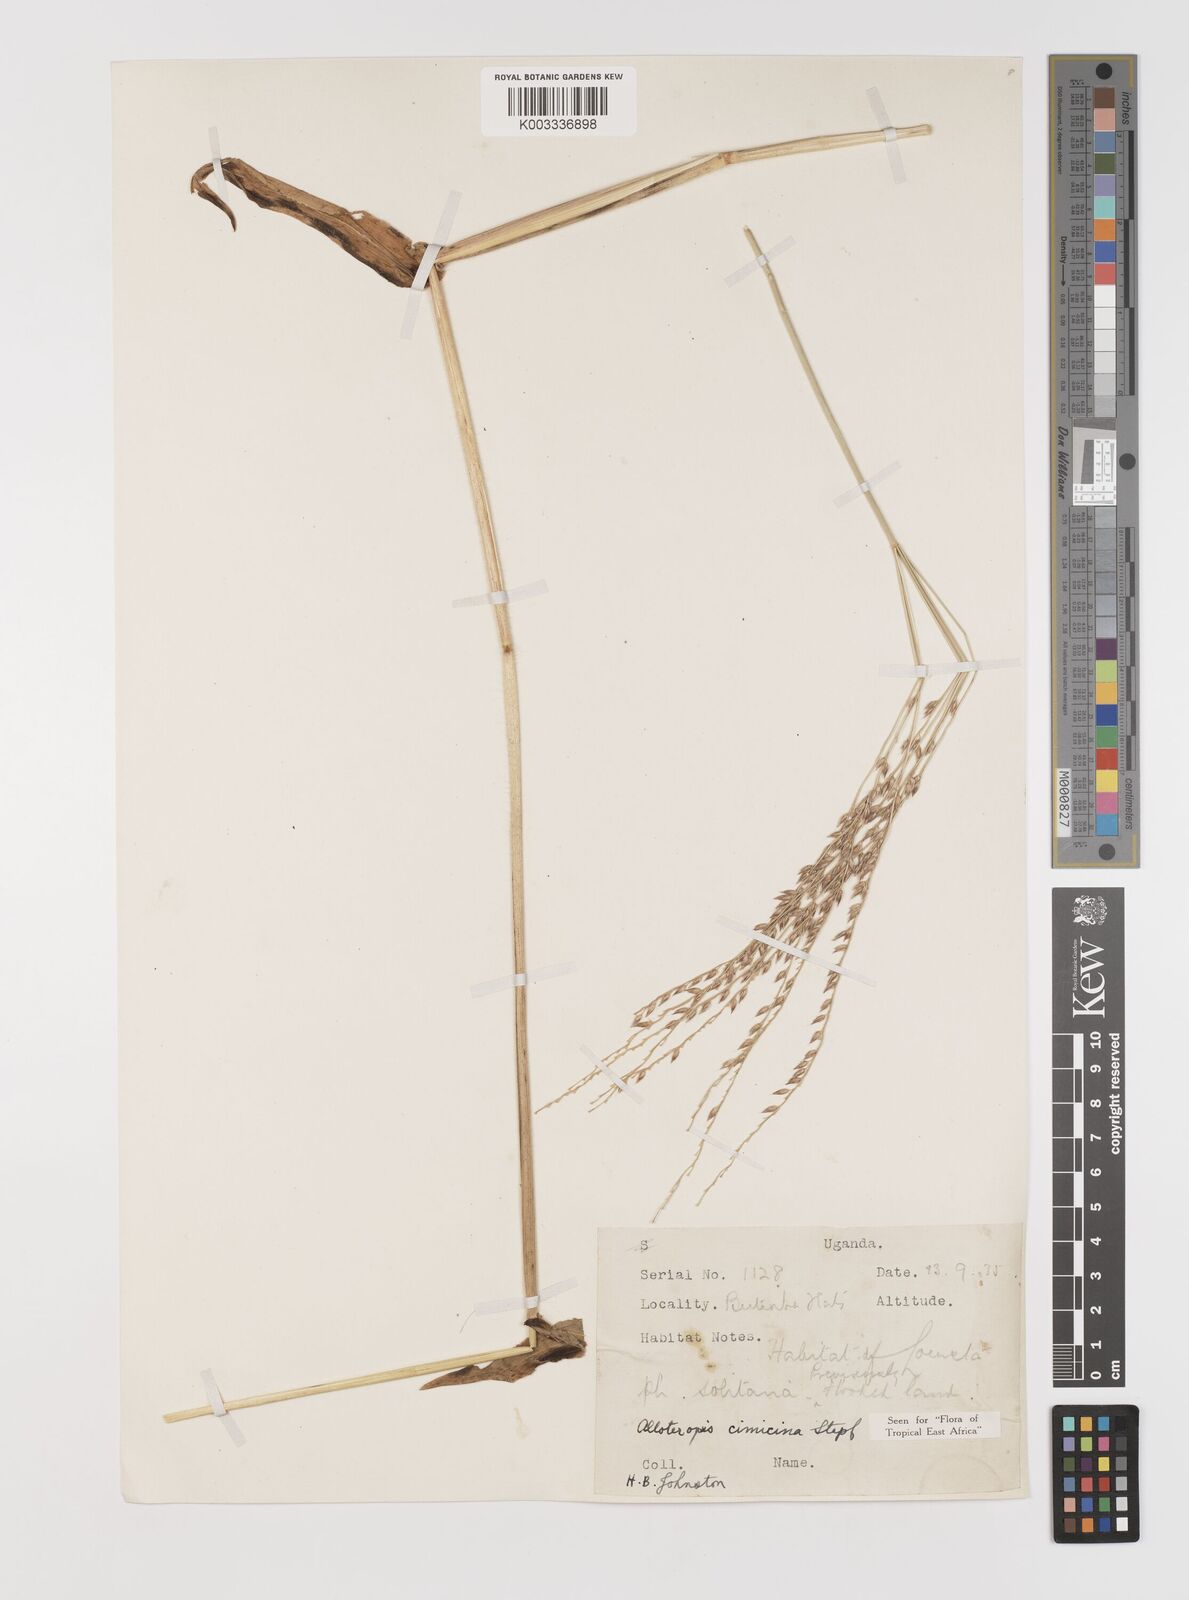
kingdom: Plantae
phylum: Tracheophyta
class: Liliopsida
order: Poales
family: Poaceae
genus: Alloteropsis
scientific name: Alloteropsis cimicina
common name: Summergrass
